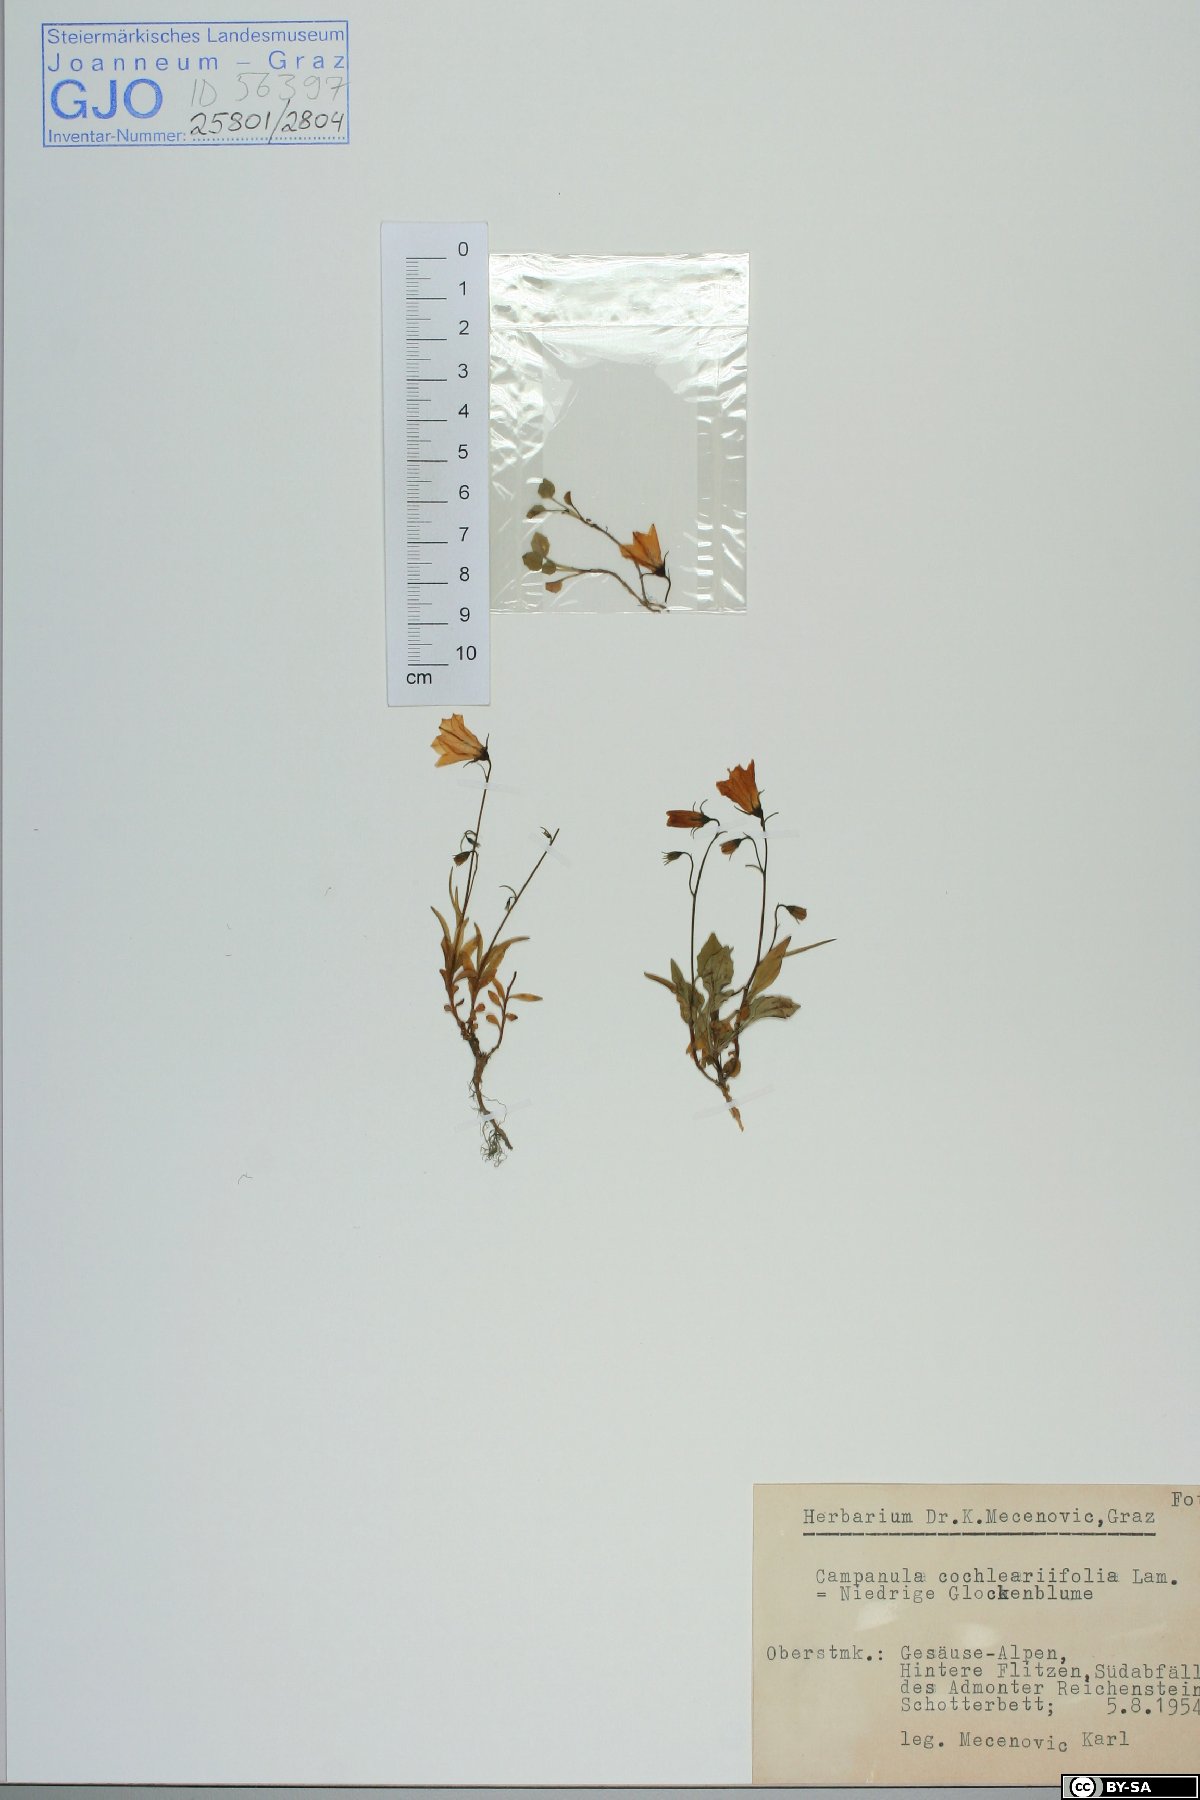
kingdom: Plantae
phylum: Tracheophyta
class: Magnoliopsida
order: Asterales
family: Campanulaceae
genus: Campanula
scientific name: Campanula cochleariifolia
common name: Fairies'-thimbles
